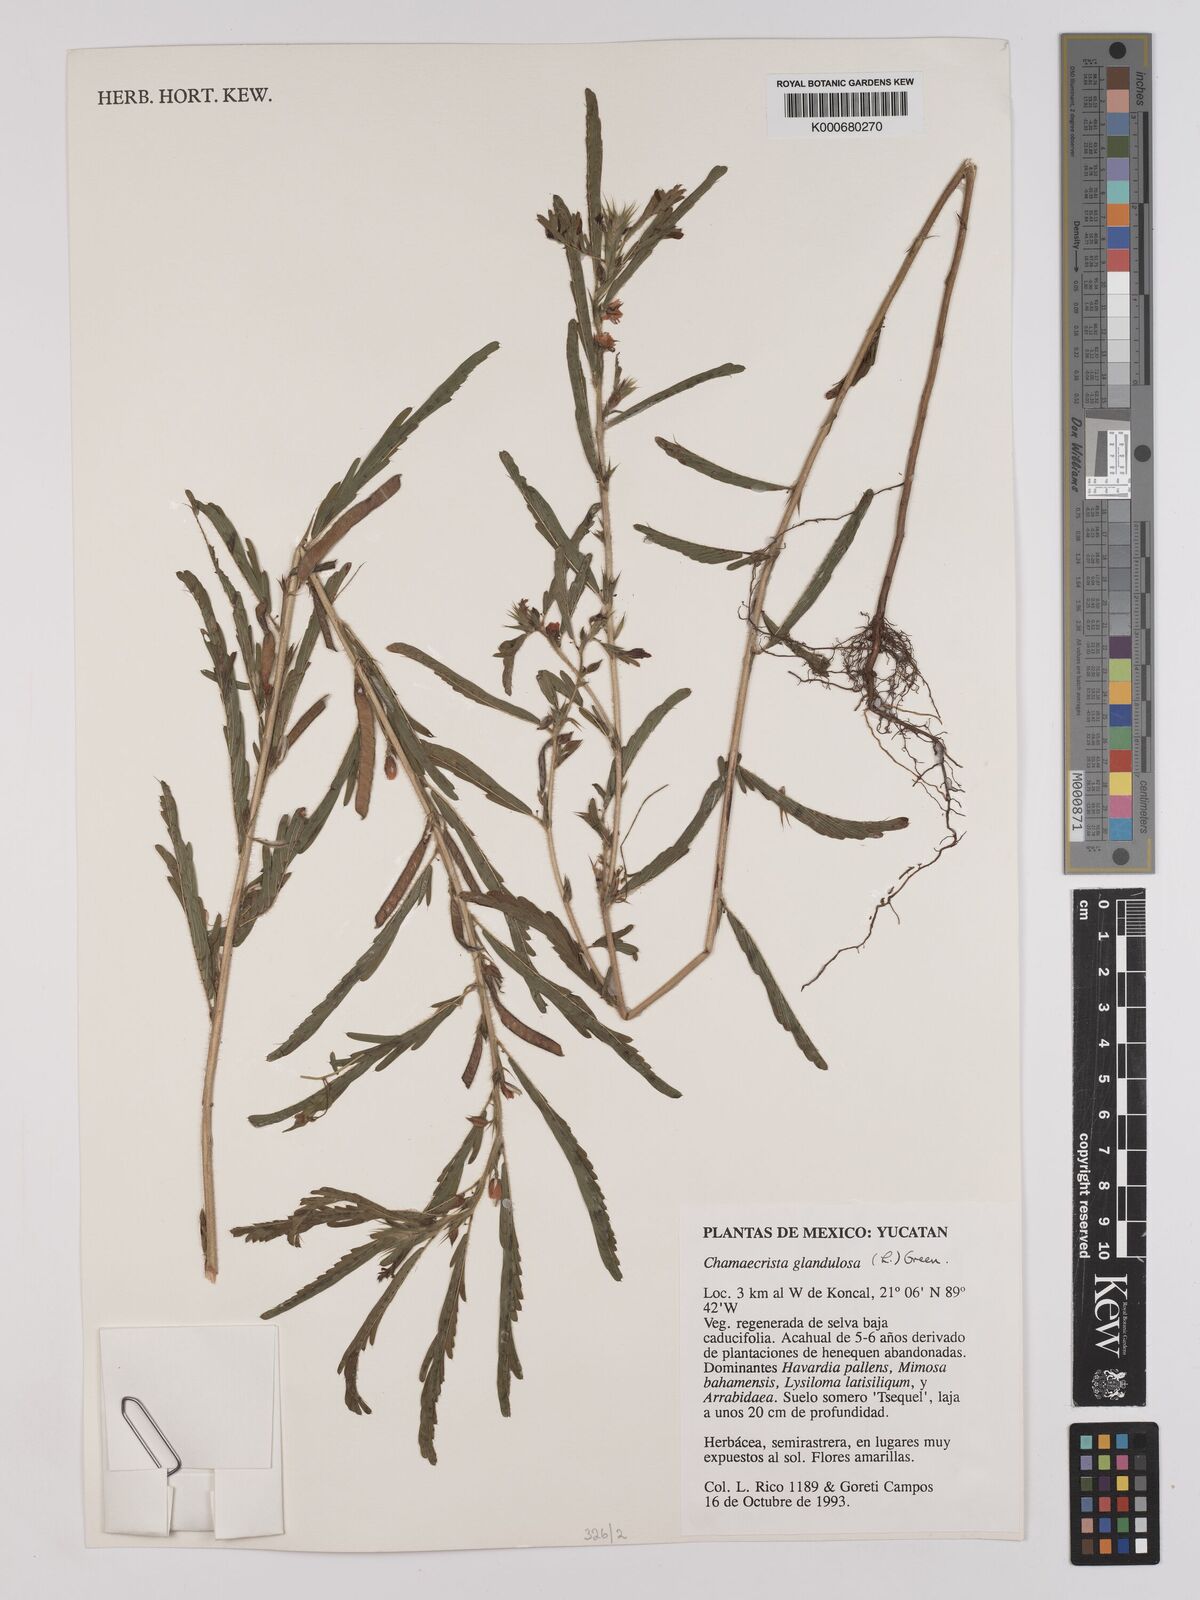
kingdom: Plantae
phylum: Tracheophyta
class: Magnoliopsida
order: Fabales
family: Fabaceae
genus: Chamaecrista
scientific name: Chamaecrista glandulosa
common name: Wild peas
